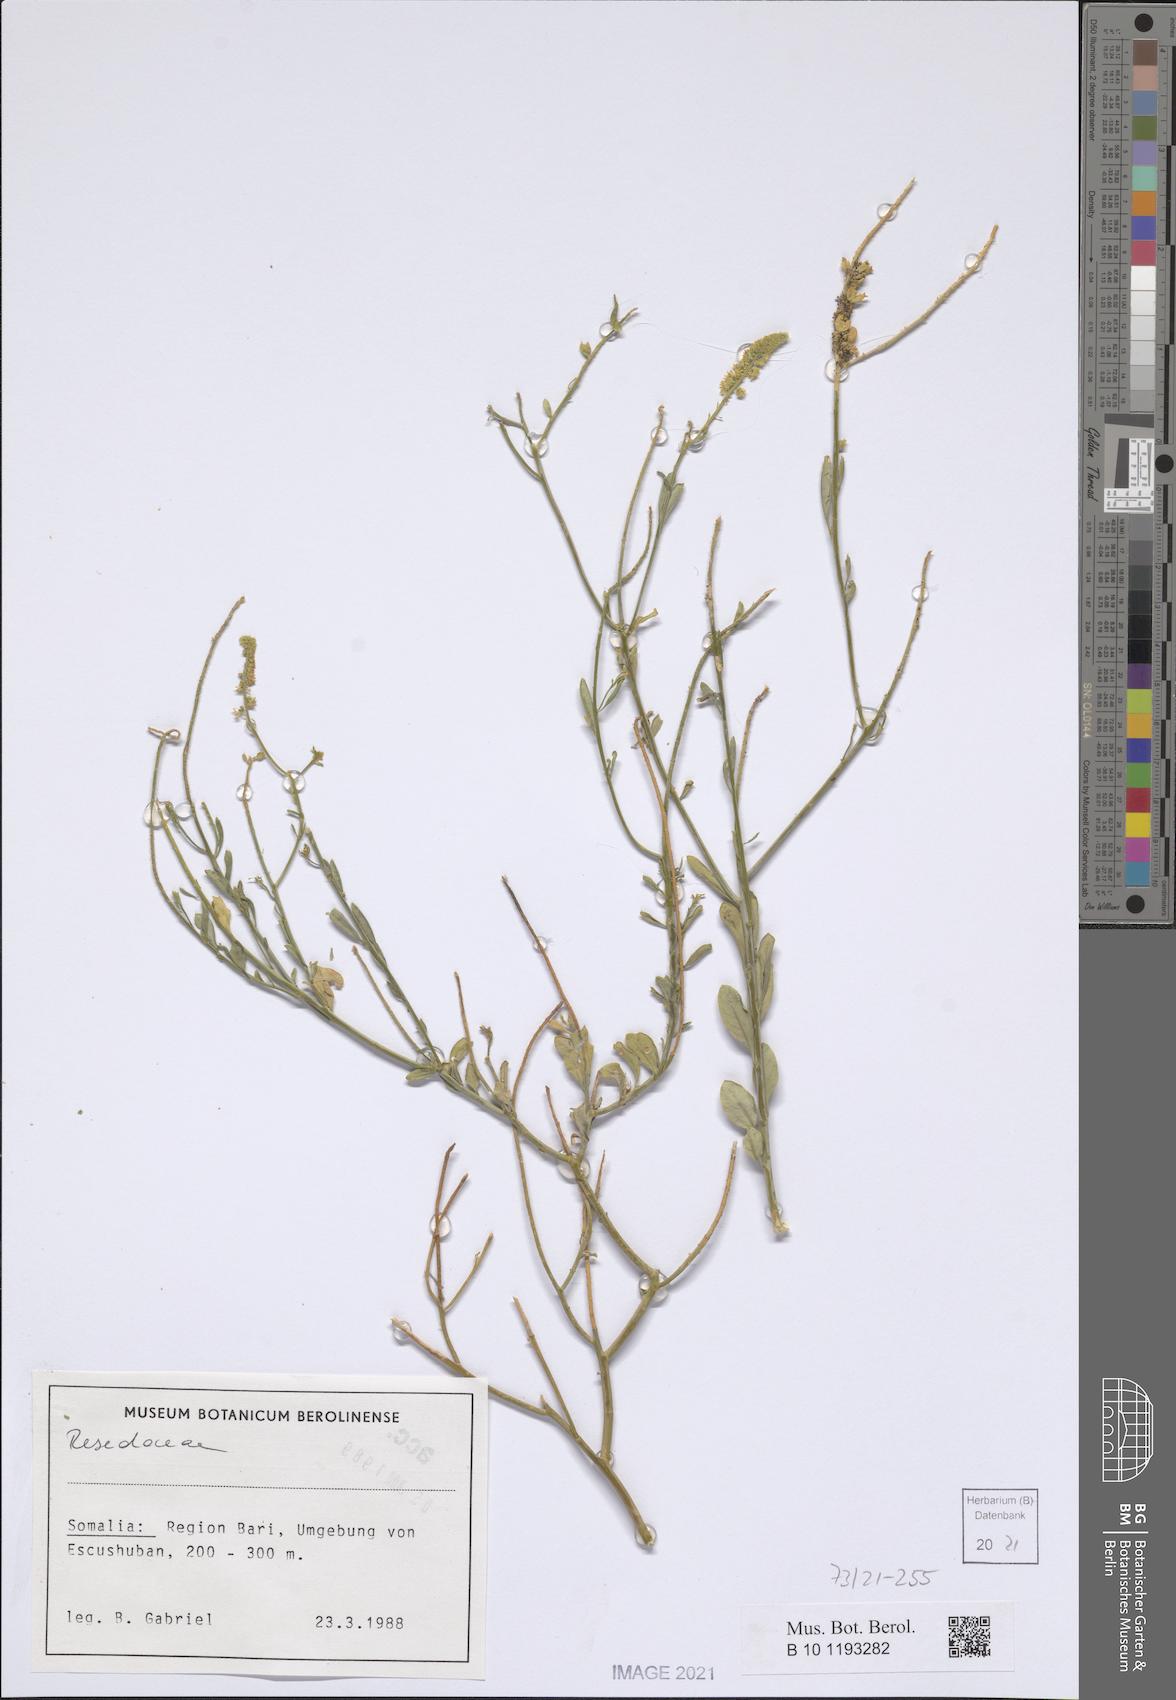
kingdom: Plantae
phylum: Tracheophyta
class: Magnoliopsida
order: Brassicales
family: Resedaceae
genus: Reseda
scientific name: Reseda amblycarpa
